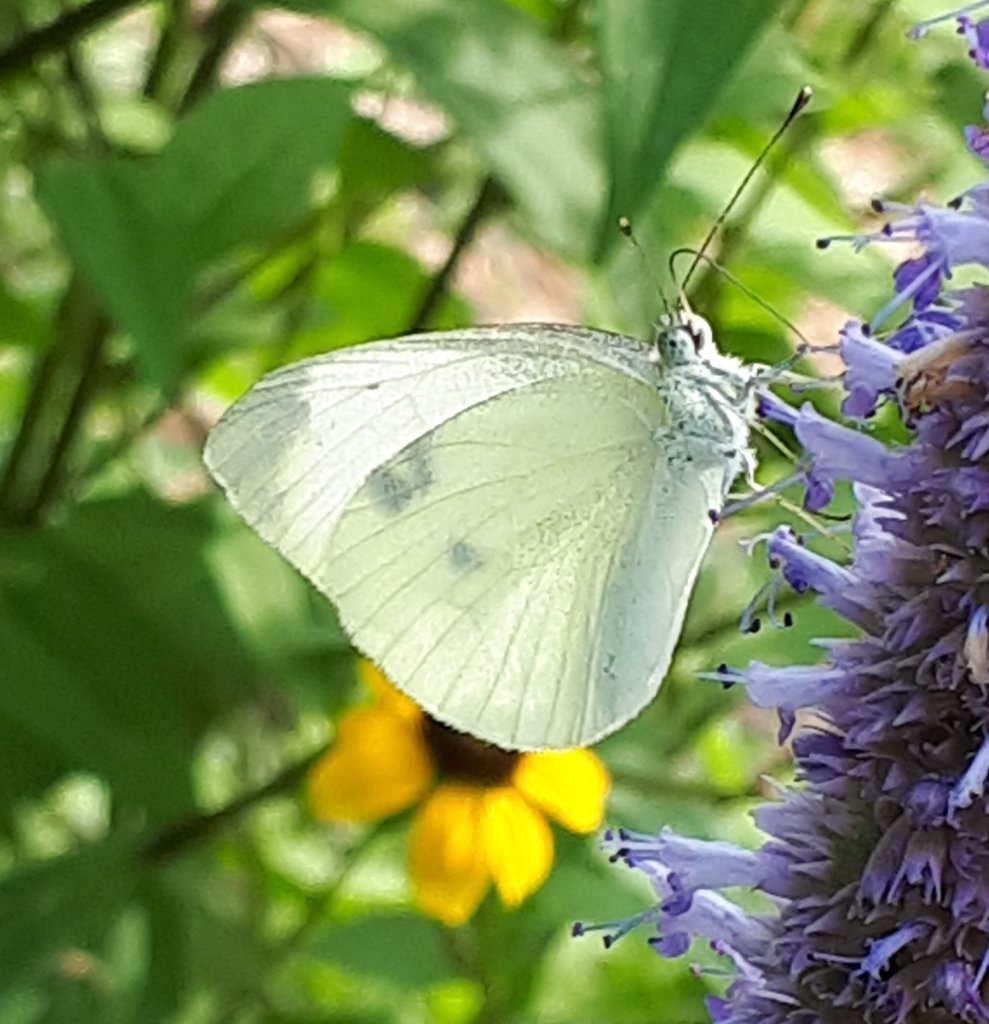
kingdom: Animalia
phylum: Arthropoda
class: Insecta
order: Lepidoptera
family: Pieridae
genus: Pieris
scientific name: Pieris rapae
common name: Cabbage White
